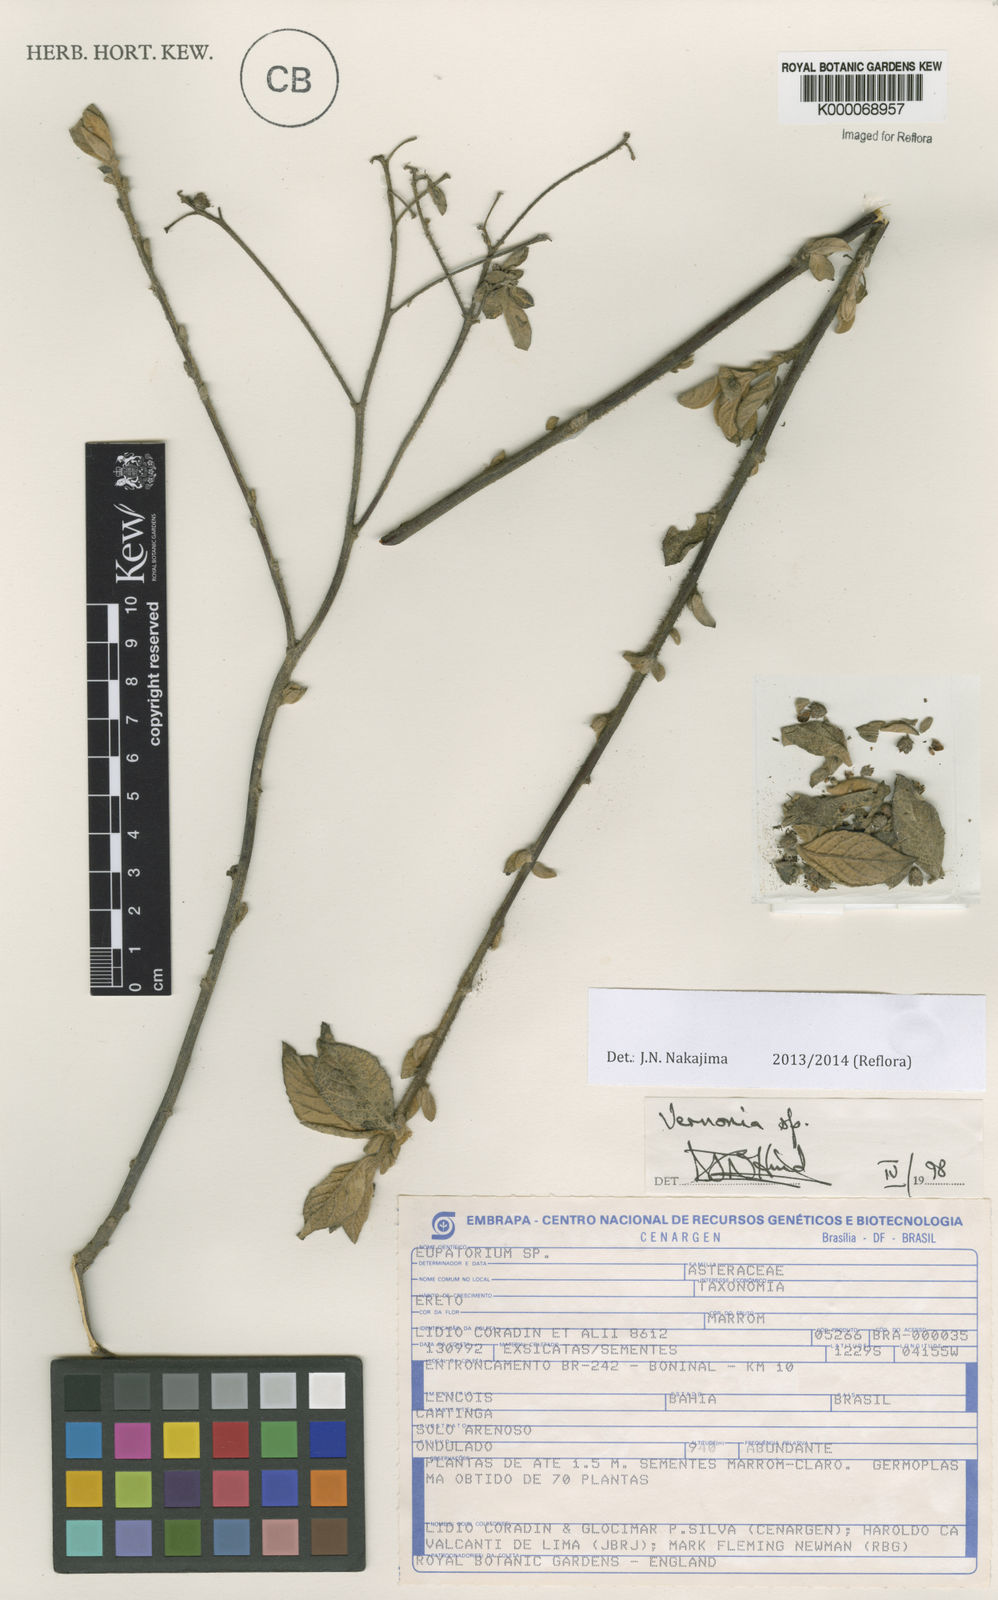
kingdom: Plantae
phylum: Tracheophyta
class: Magnoliopsida
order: Asterales
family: Asteraceae
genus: Vernonia
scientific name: Vernonia
